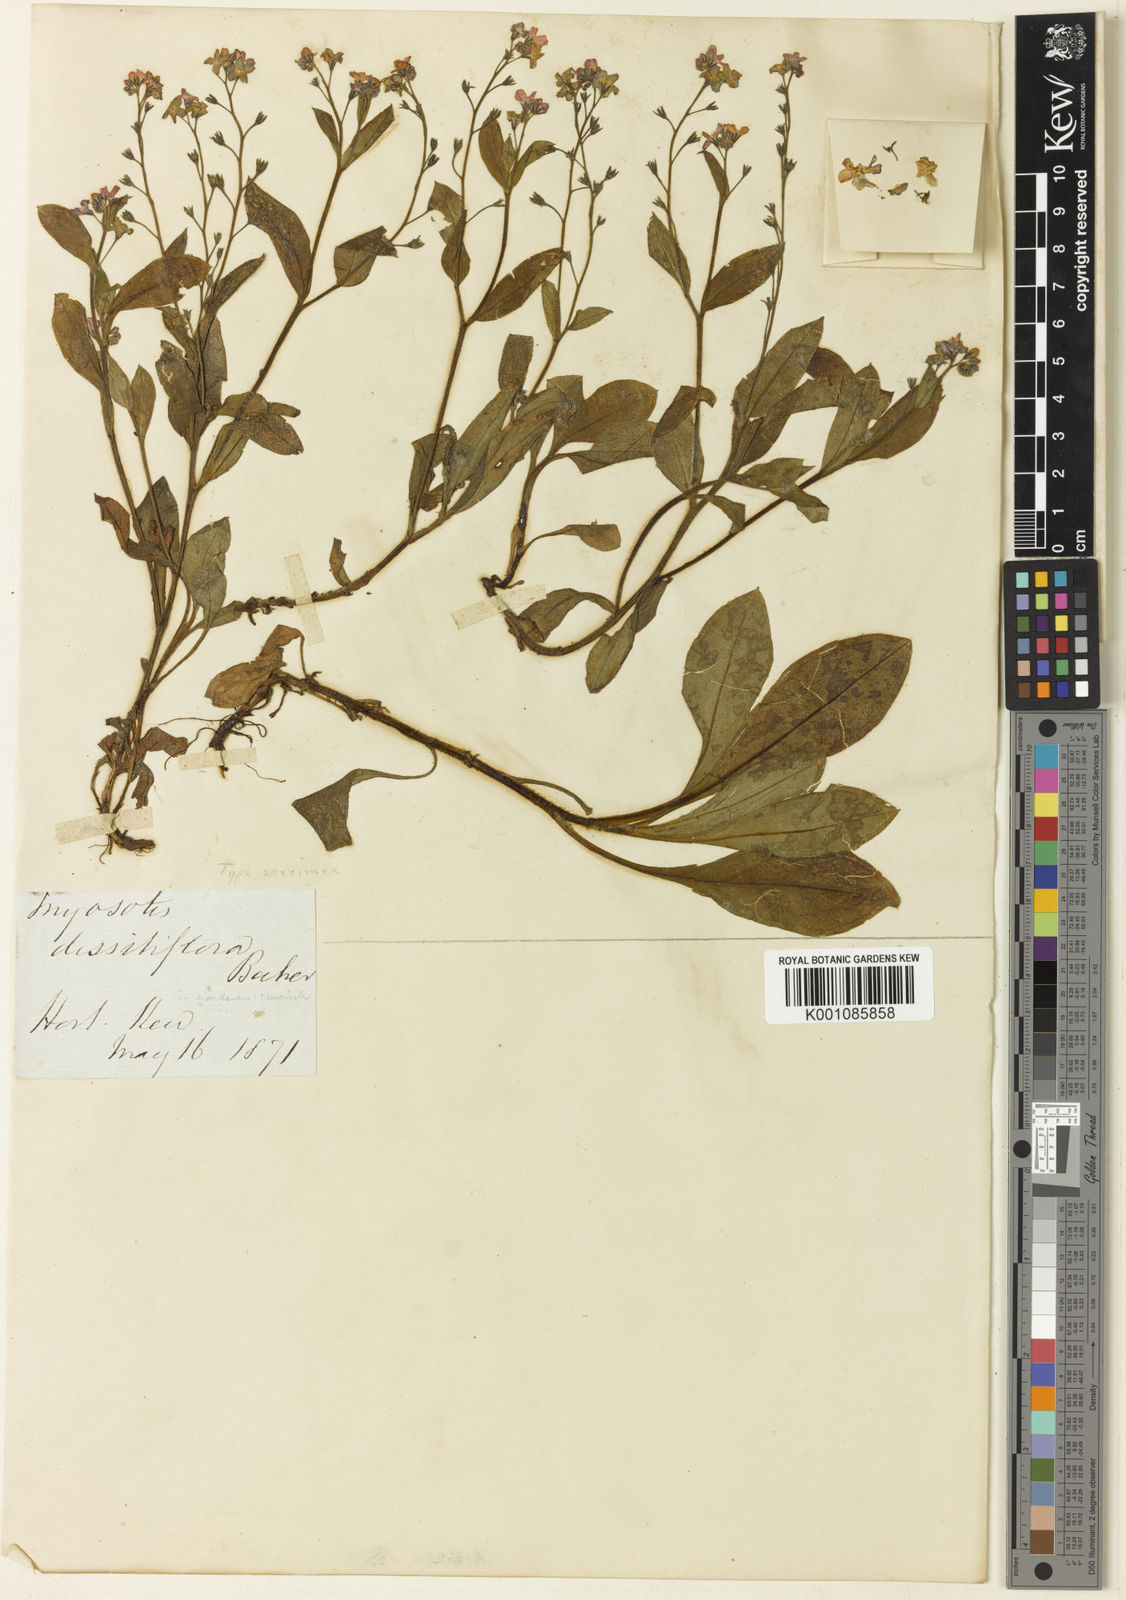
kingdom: Plantae
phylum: Tracheophyta
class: Magnoliopsida
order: Boraginales
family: Boraginaceae
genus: Myosotis
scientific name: Myosotis dissitiflora
